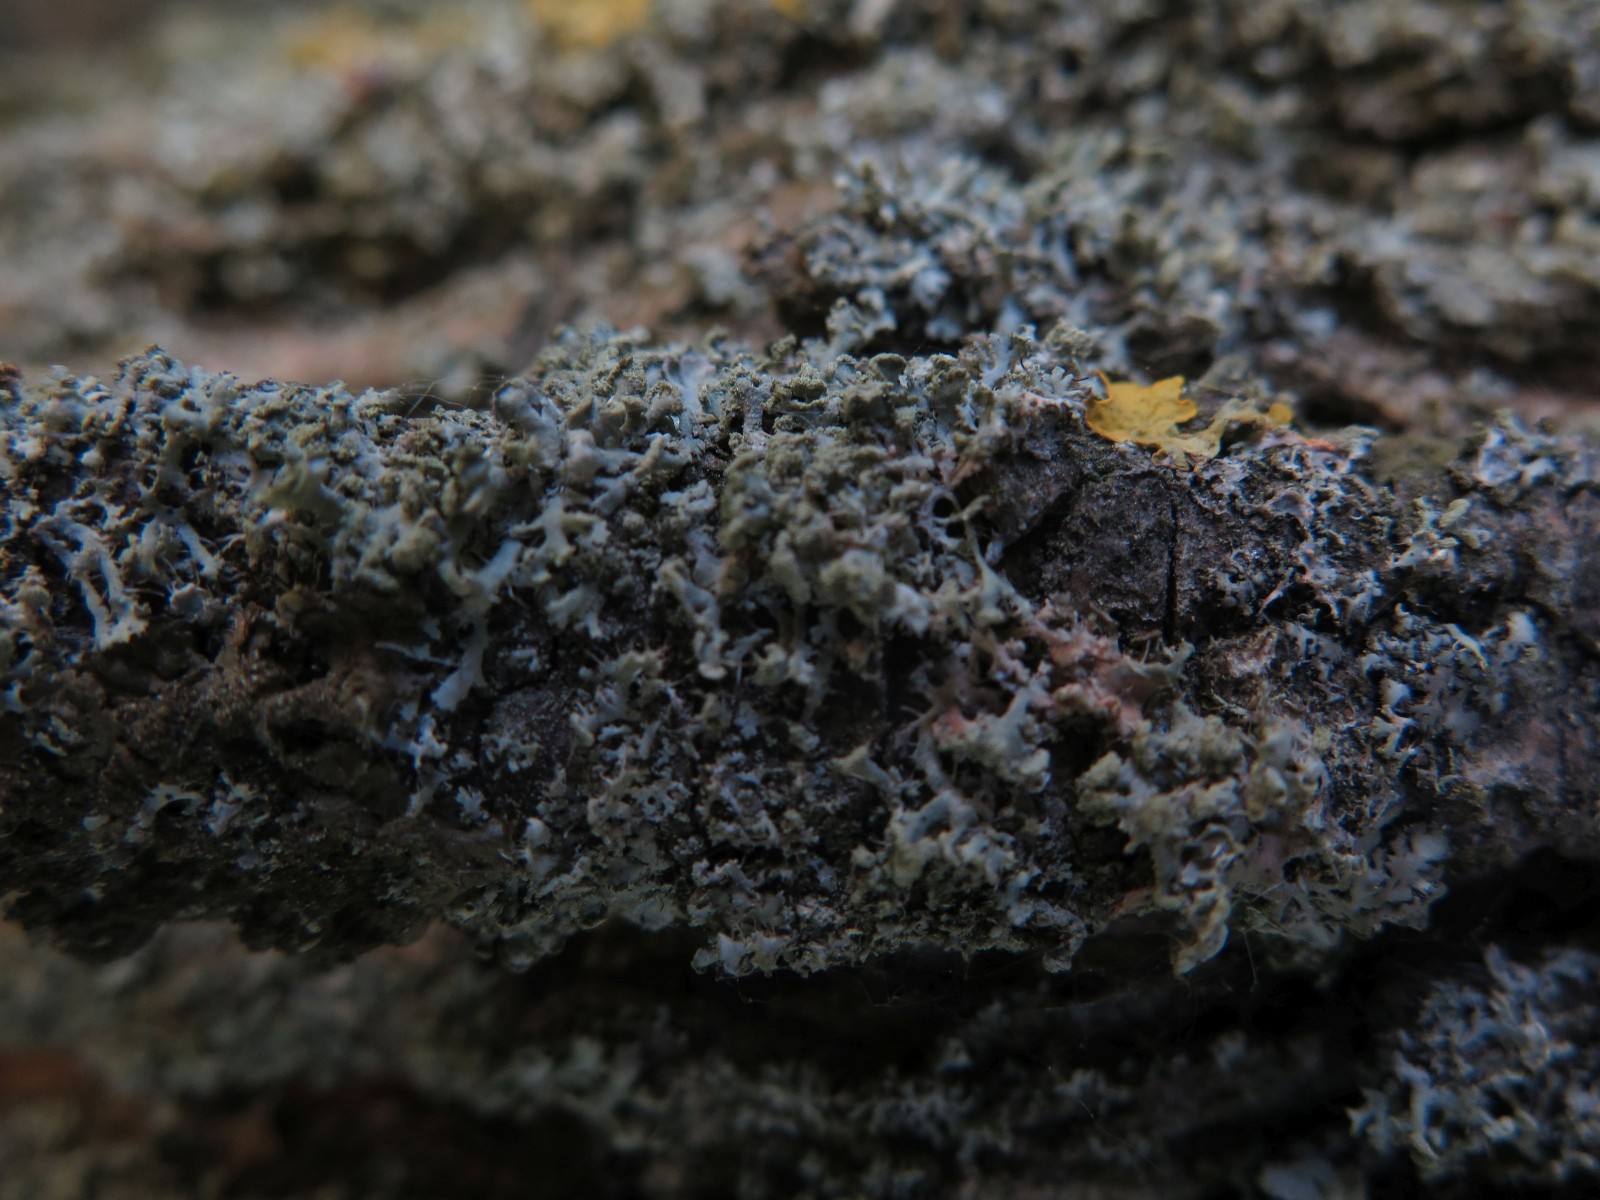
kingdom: Fungi
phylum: Basidiomycota
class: Agaricomycetes
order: Corticiales
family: Corticiaceae
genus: Erythricium
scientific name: Erythricium aurantiacum
